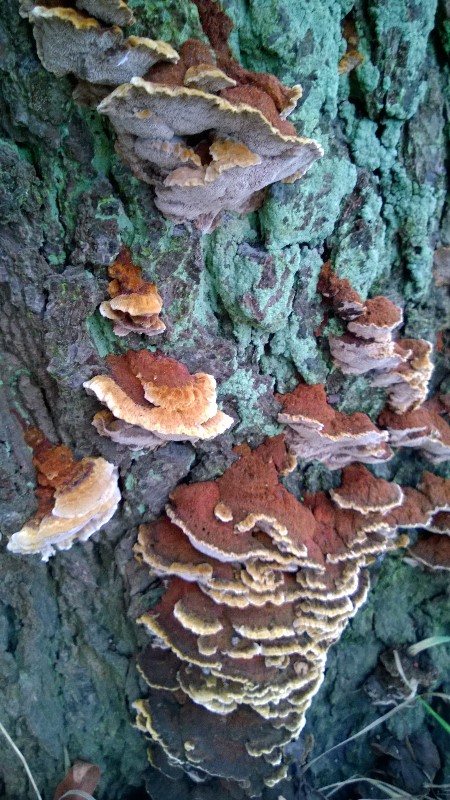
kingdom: Fungi
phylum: Basidiomycota
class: Agaricomycetes
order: Hymenochaetales
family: Hymenochaetaceae
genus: Xanthoporia
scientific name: Xanthoporia radiata
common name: elle-spejlporesvamp
